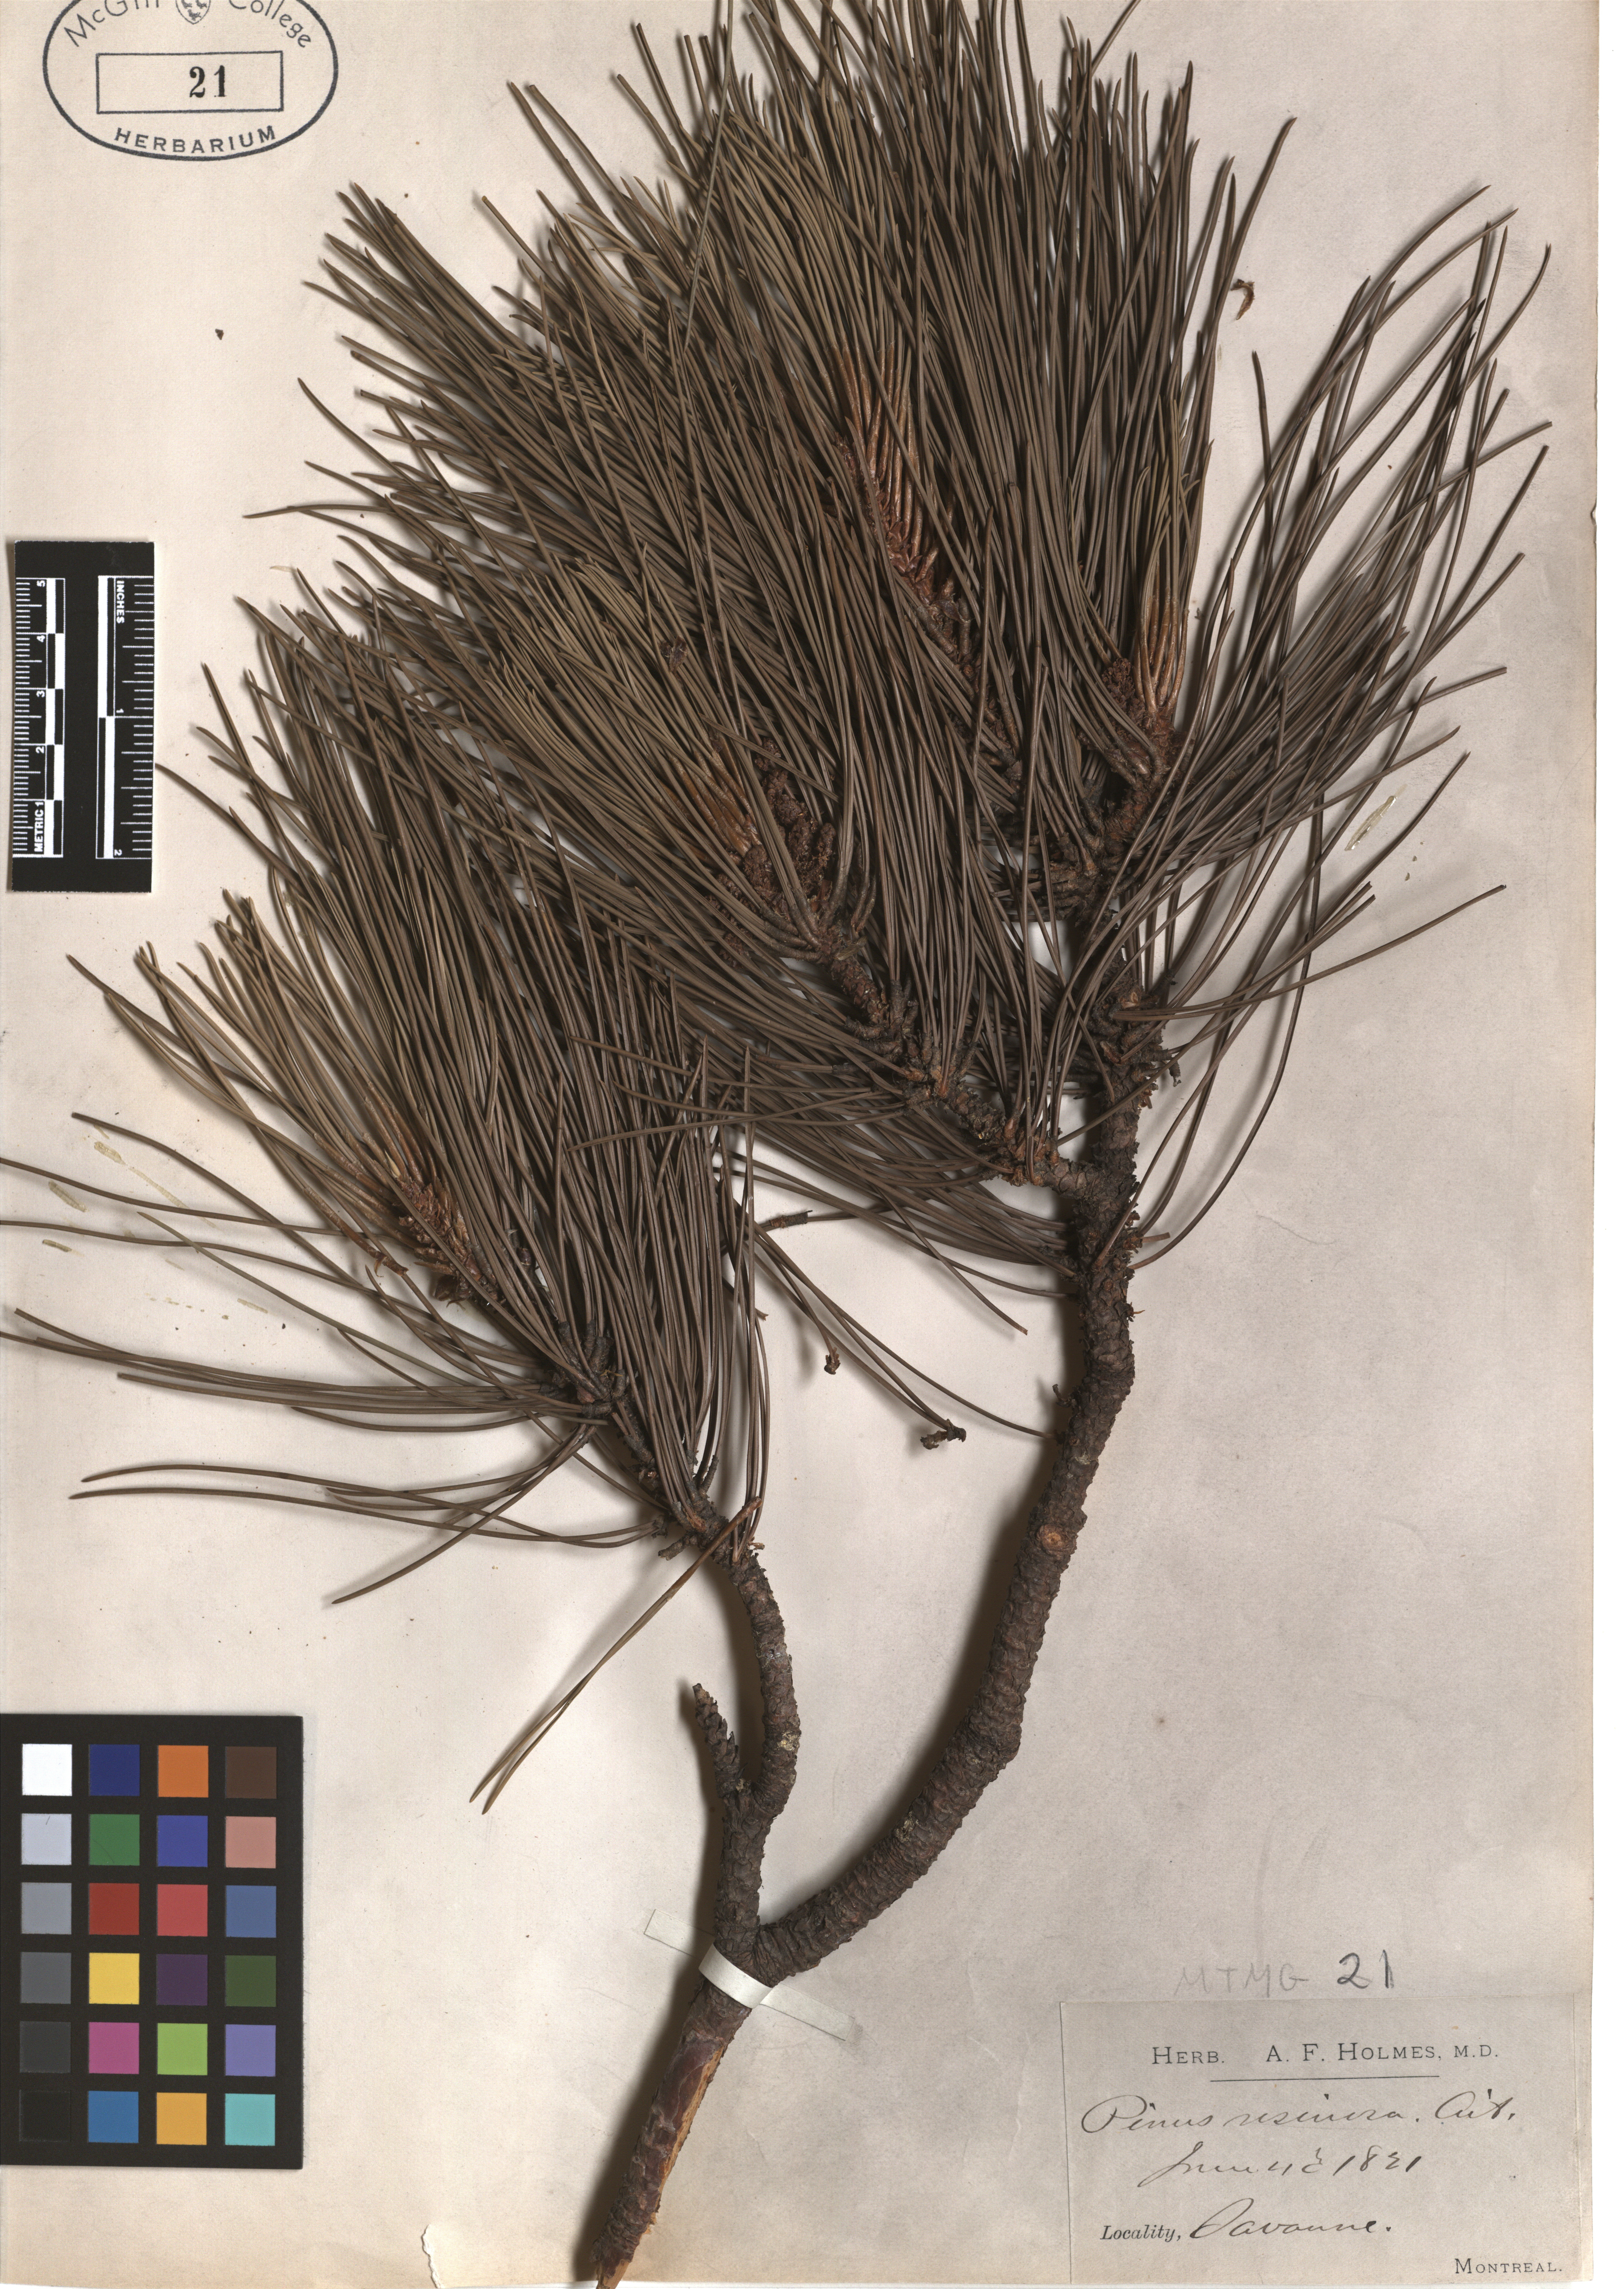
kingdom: Plantae
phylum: Tracheophyta
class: Pinopsida
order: Pinales
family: Pinaceae
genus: Pinus
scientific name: Pinus resinosa
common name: Norway pine
